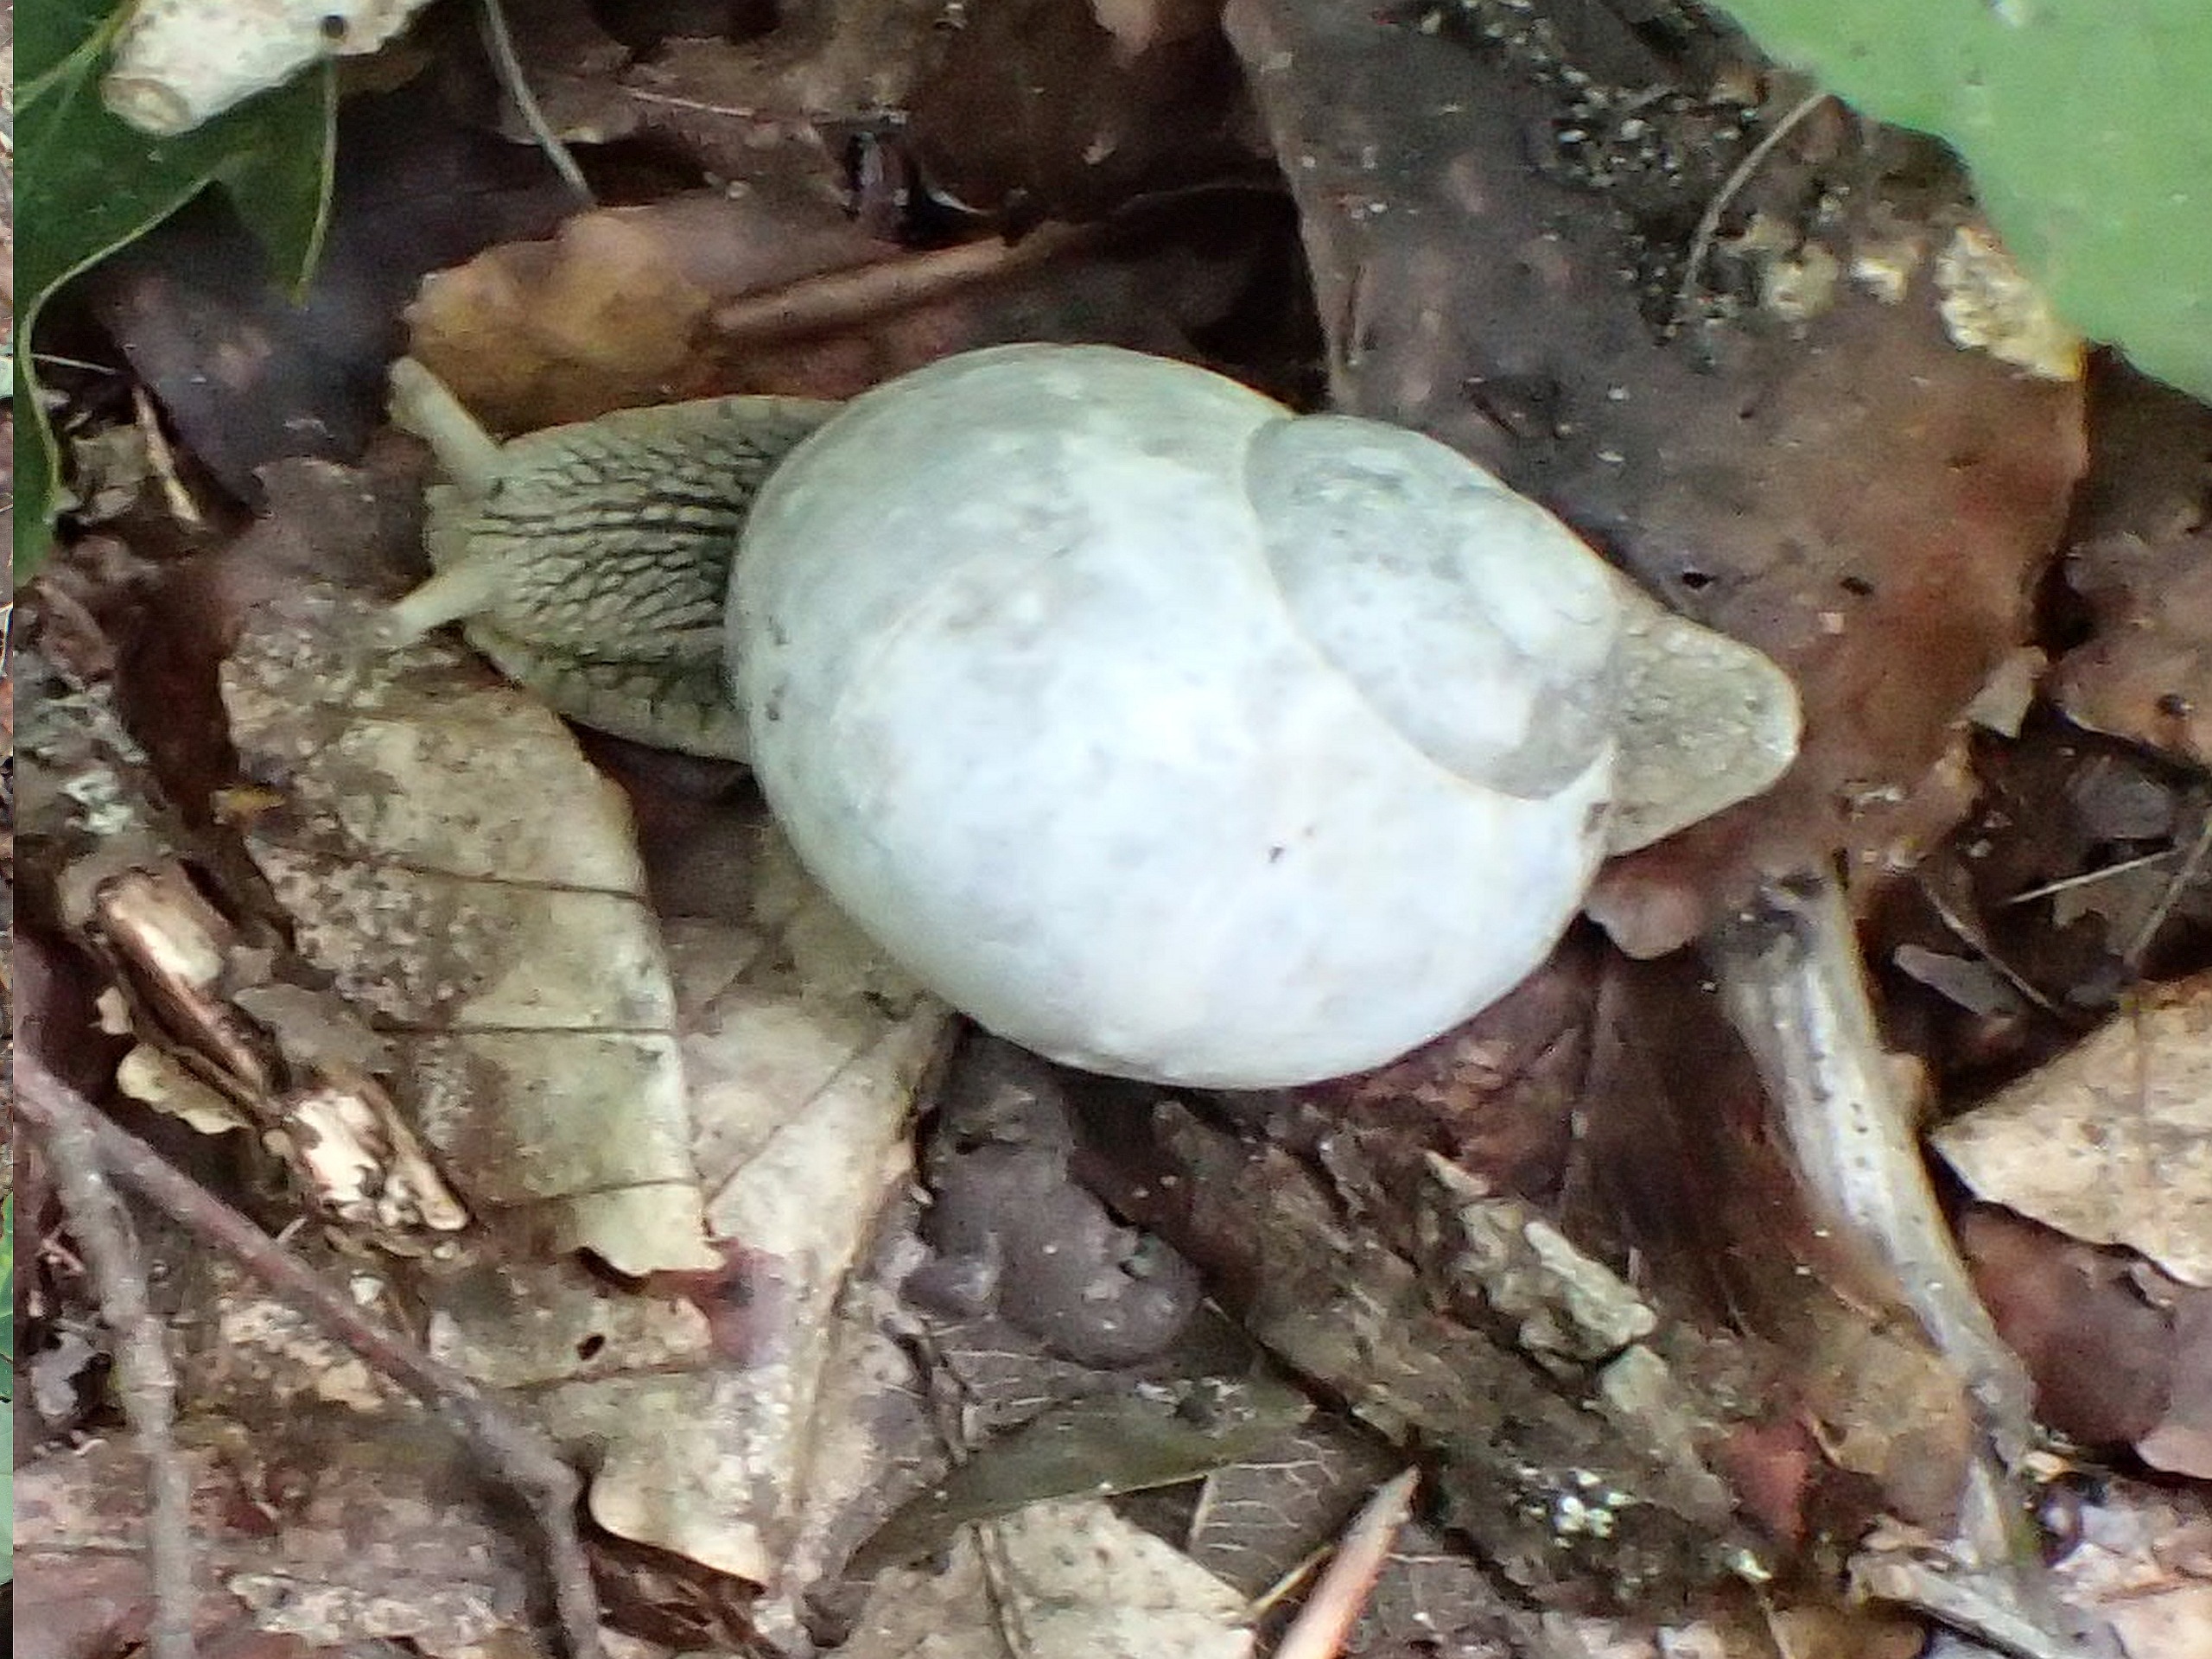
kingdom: Animalia
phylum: Mollusca
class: Gastropoda
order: Stylommatophora
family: Helicidae
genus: Helix
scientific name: Helix pomatia
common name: Vinbjergsnegl
